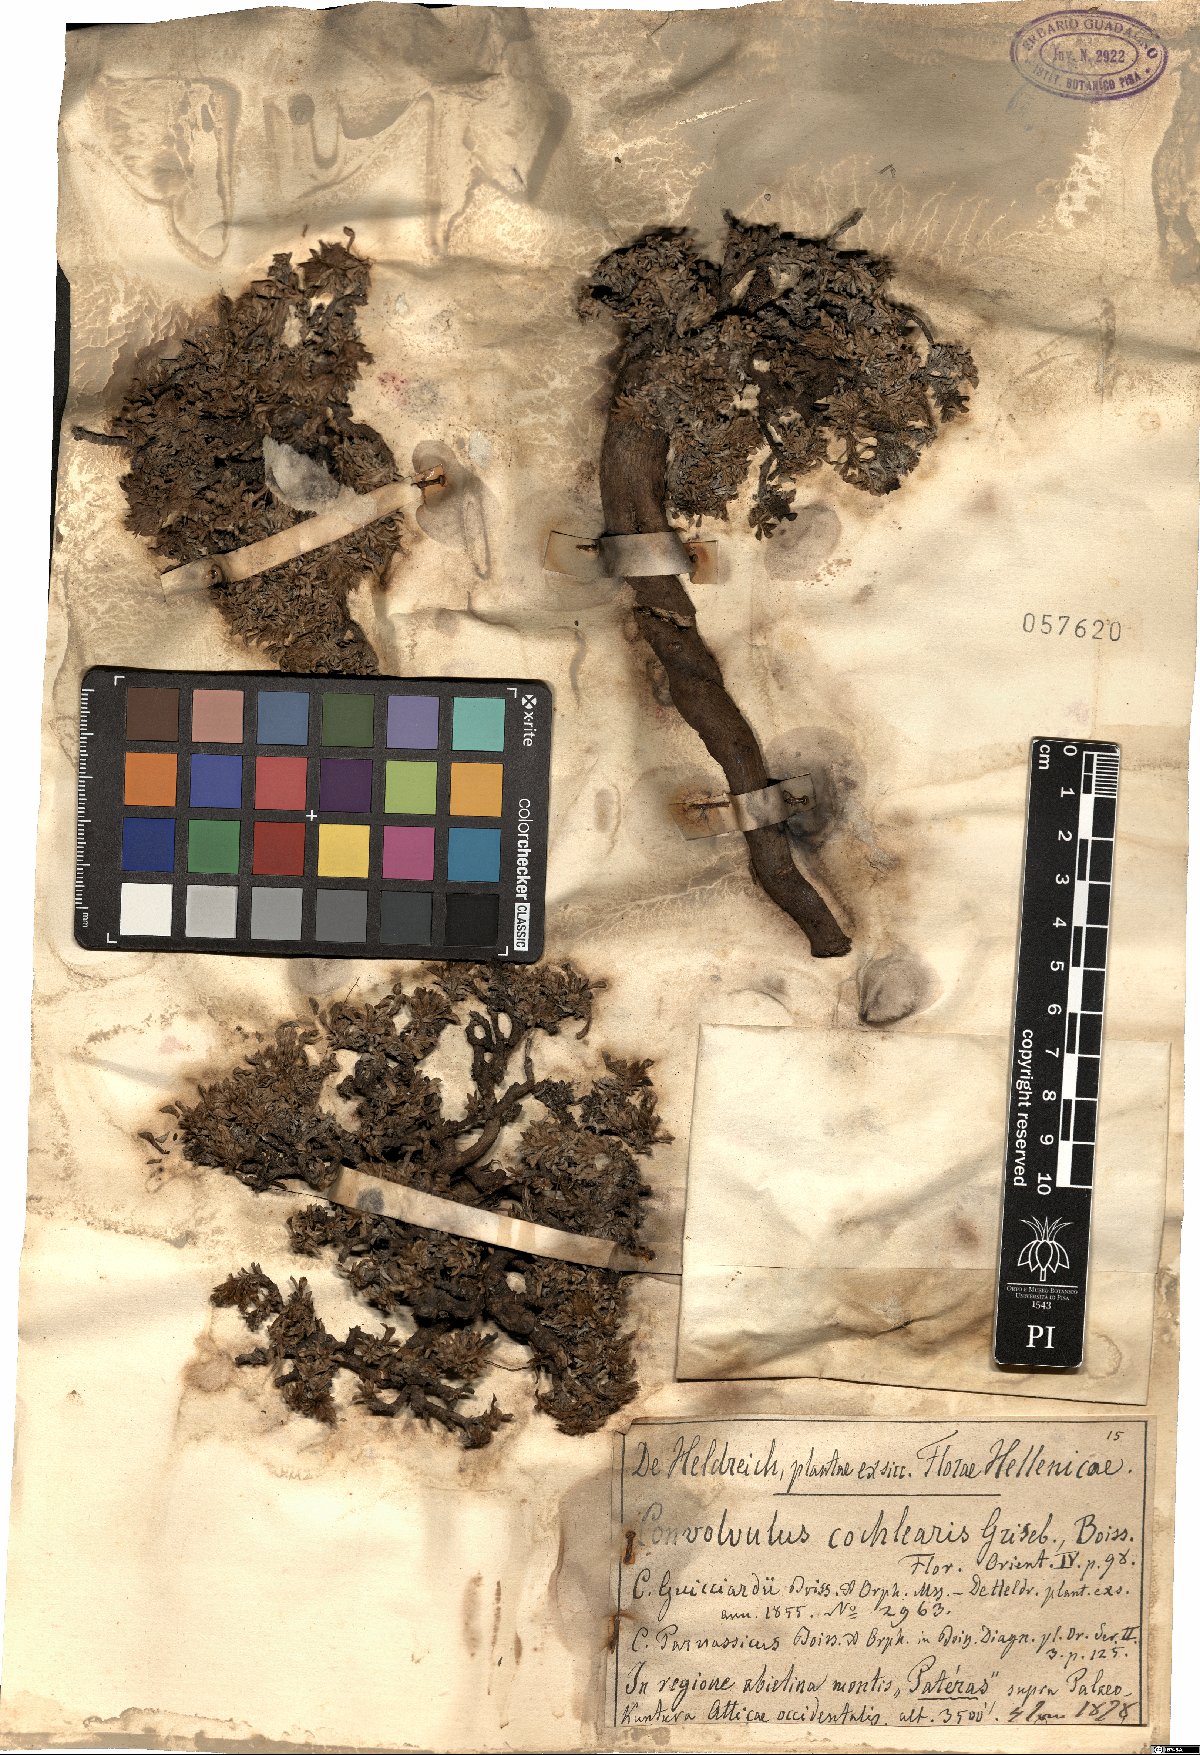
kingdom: Plantae
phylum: Tracheophyta
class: Magnoliopsida
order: Solanales
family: Convolvulaceae
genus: Convolvulus
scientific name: Convolvulus boissieri
